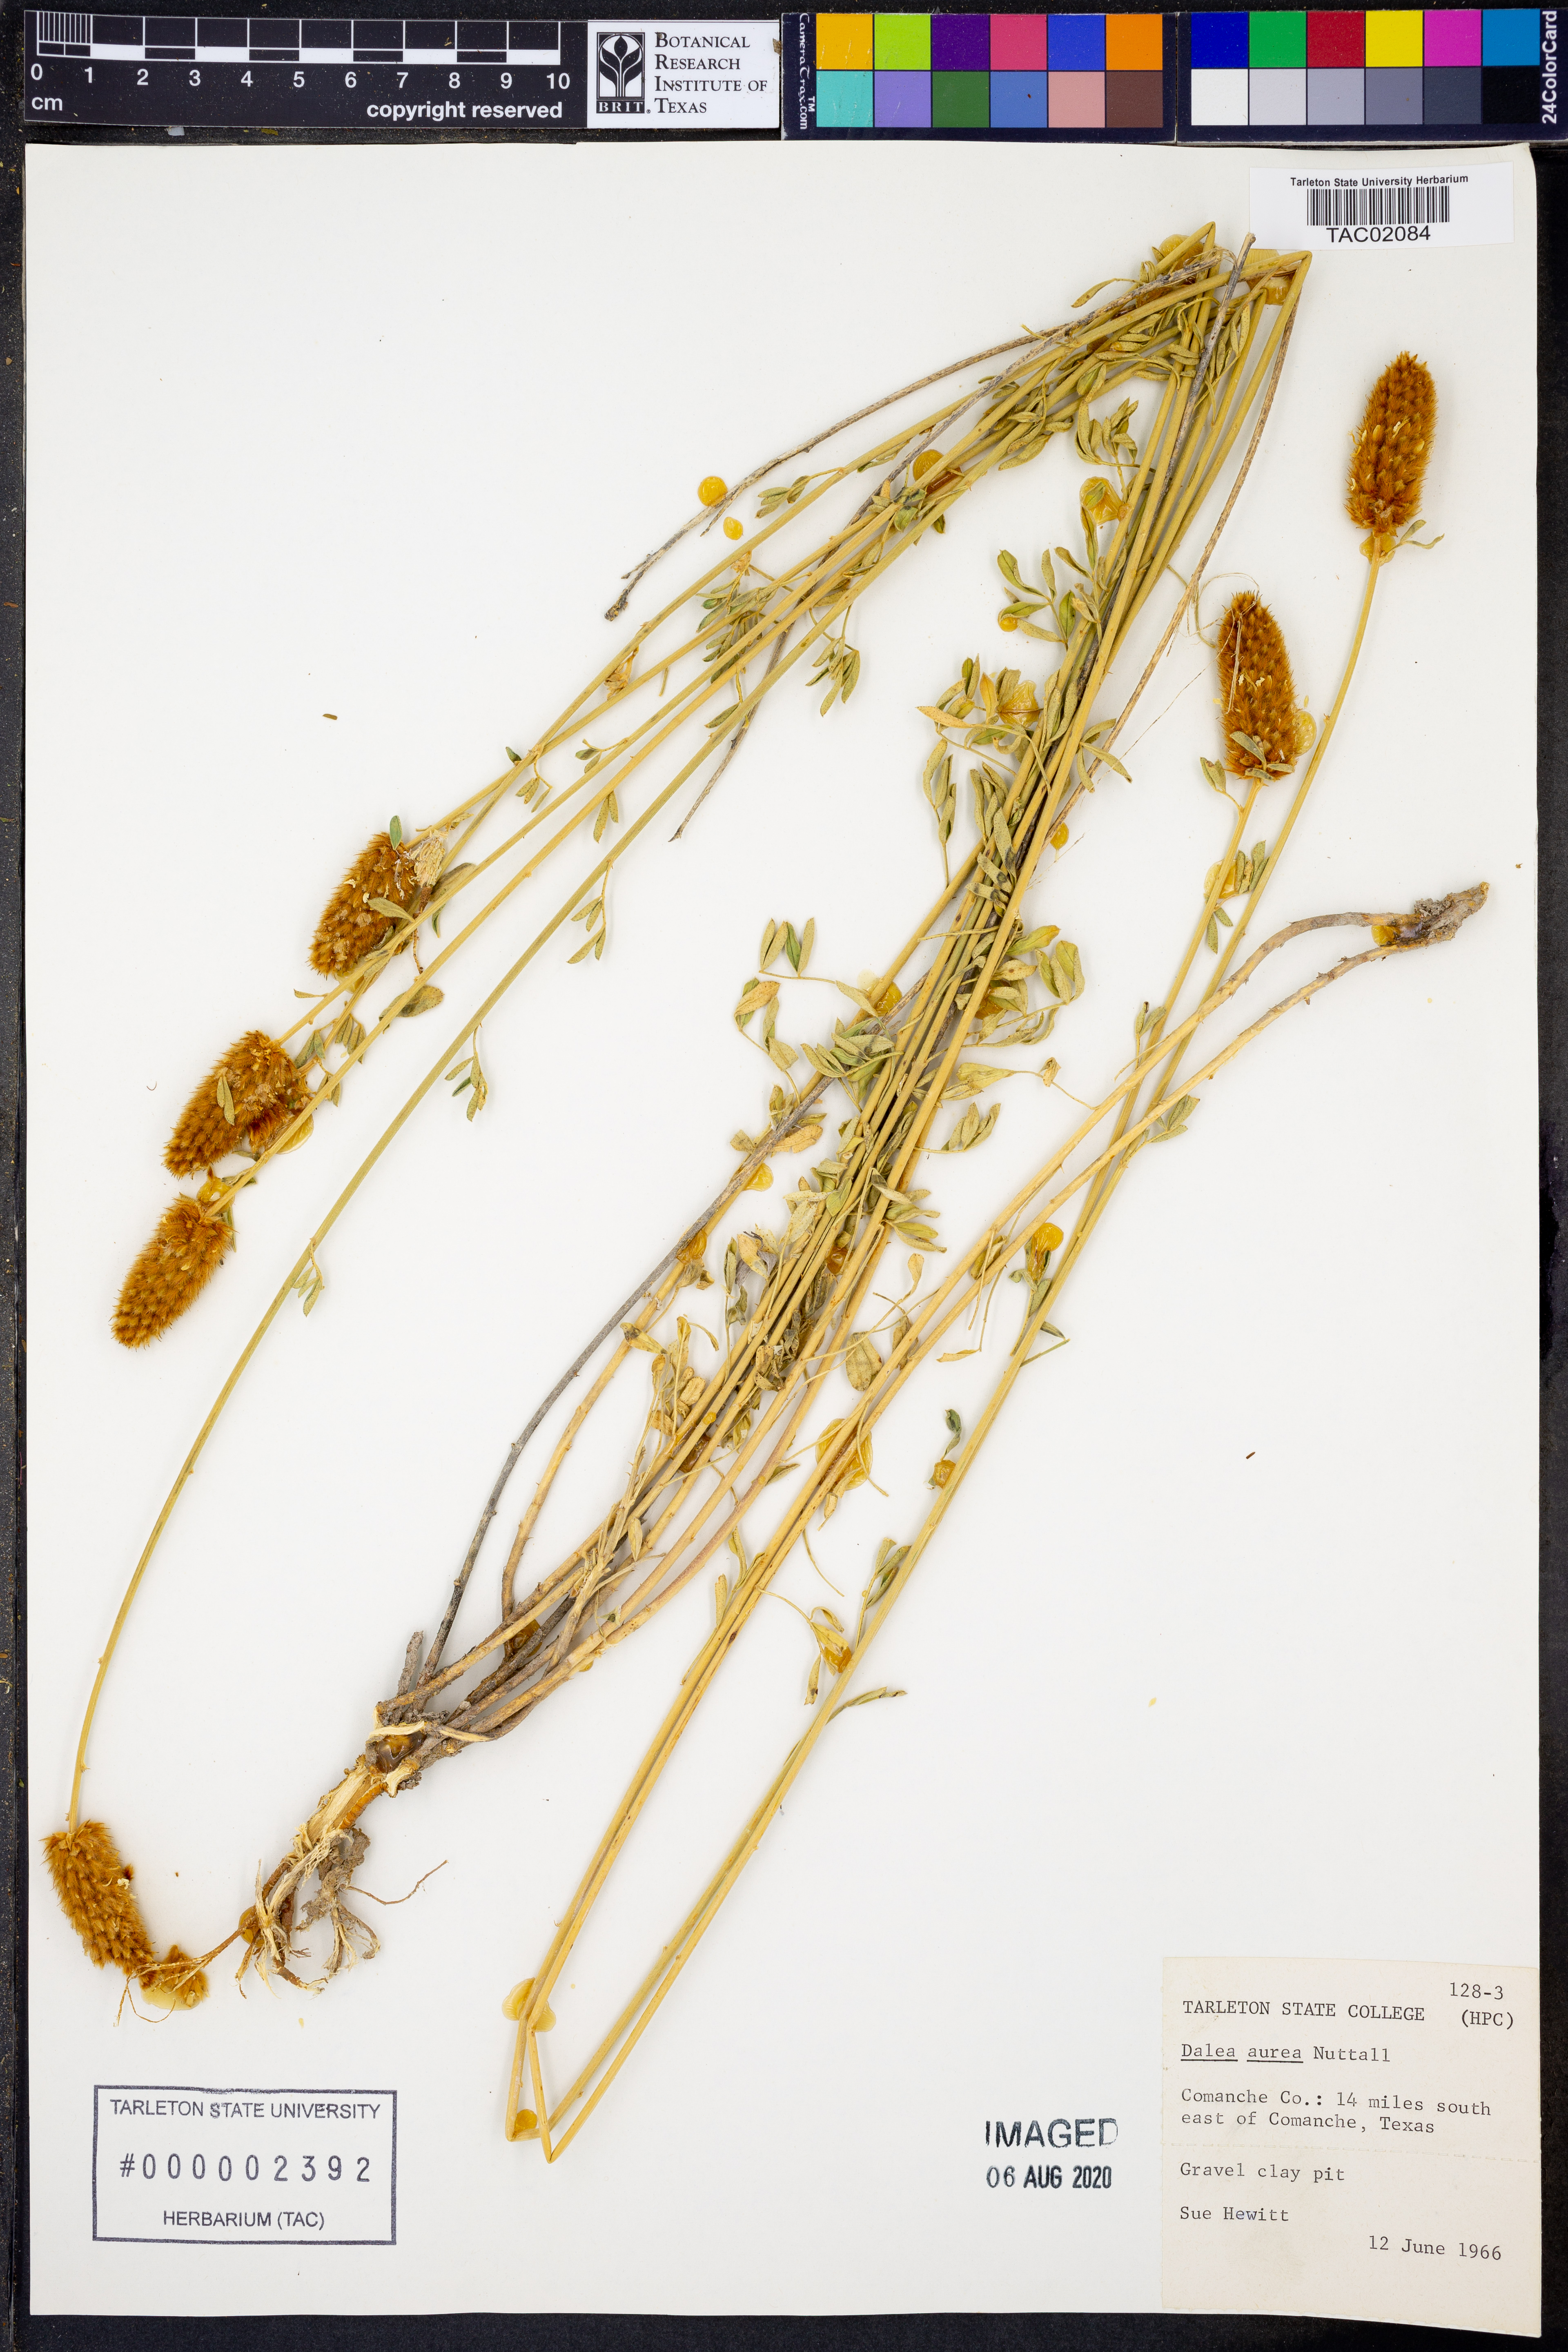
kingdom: Plantae
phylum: Tracheophyta
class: Magnoliopsida
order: Fabales
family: Fabaceae
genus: Dalea
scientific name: Dalea aurea
